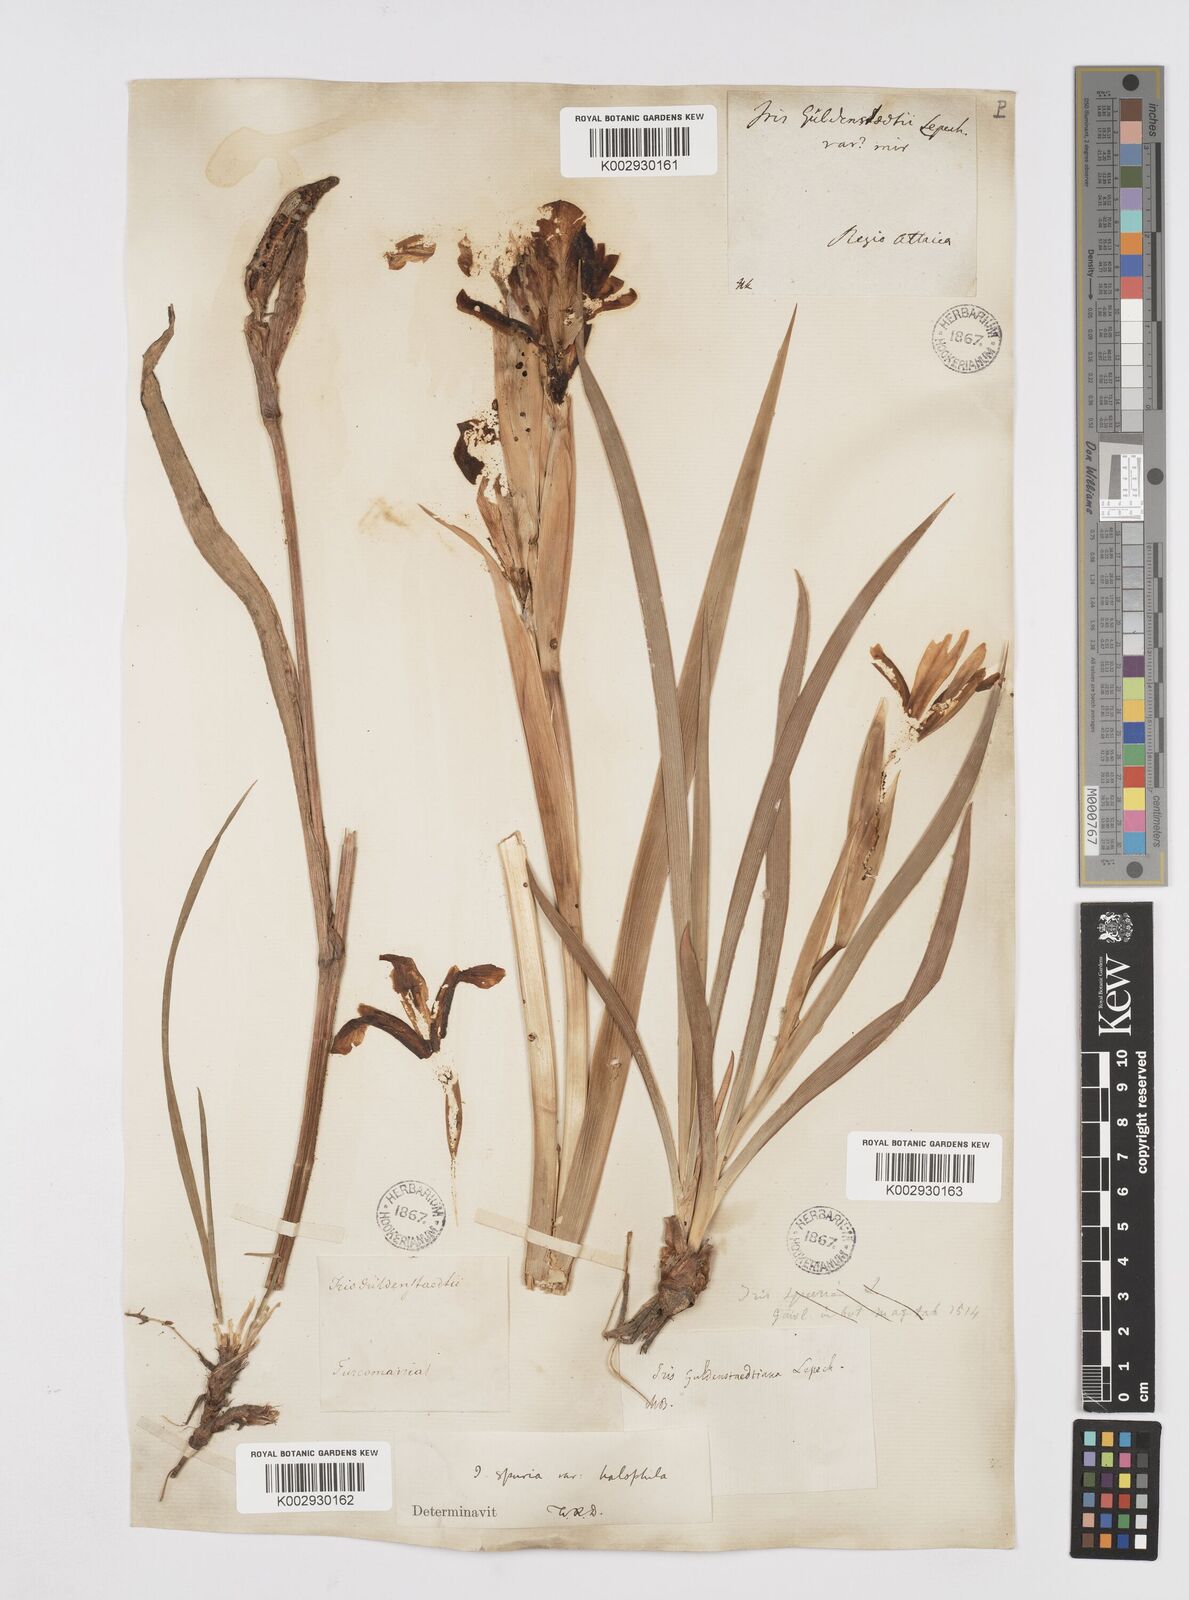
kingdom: Plantae
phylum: Tracheophyta
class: Liliopsida
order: Asparagales
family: Iridaceae
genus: Iris
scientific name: Iris halophila
